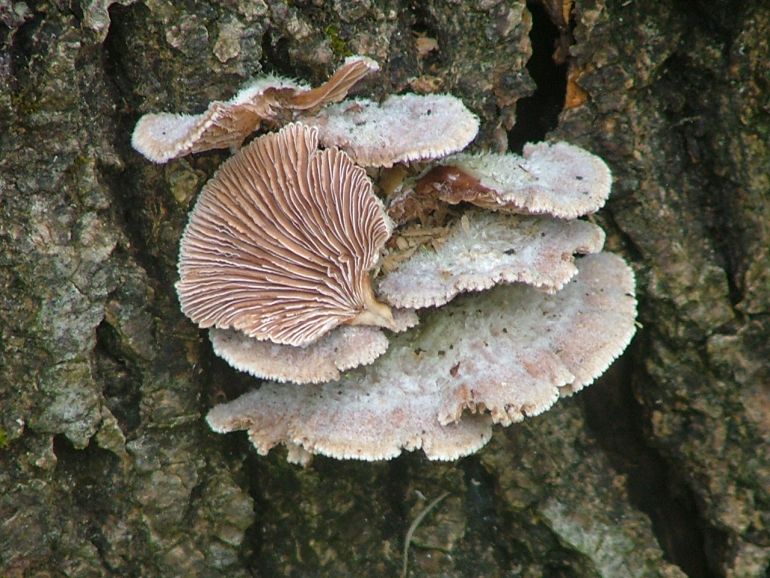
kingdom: Fungi
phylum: Basidiomycota
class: Agaricomycetes
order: Agaricales
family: Schizophyllaceae
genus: Schizophyllum
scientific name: Schizophyllum commune
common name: kløvblad
